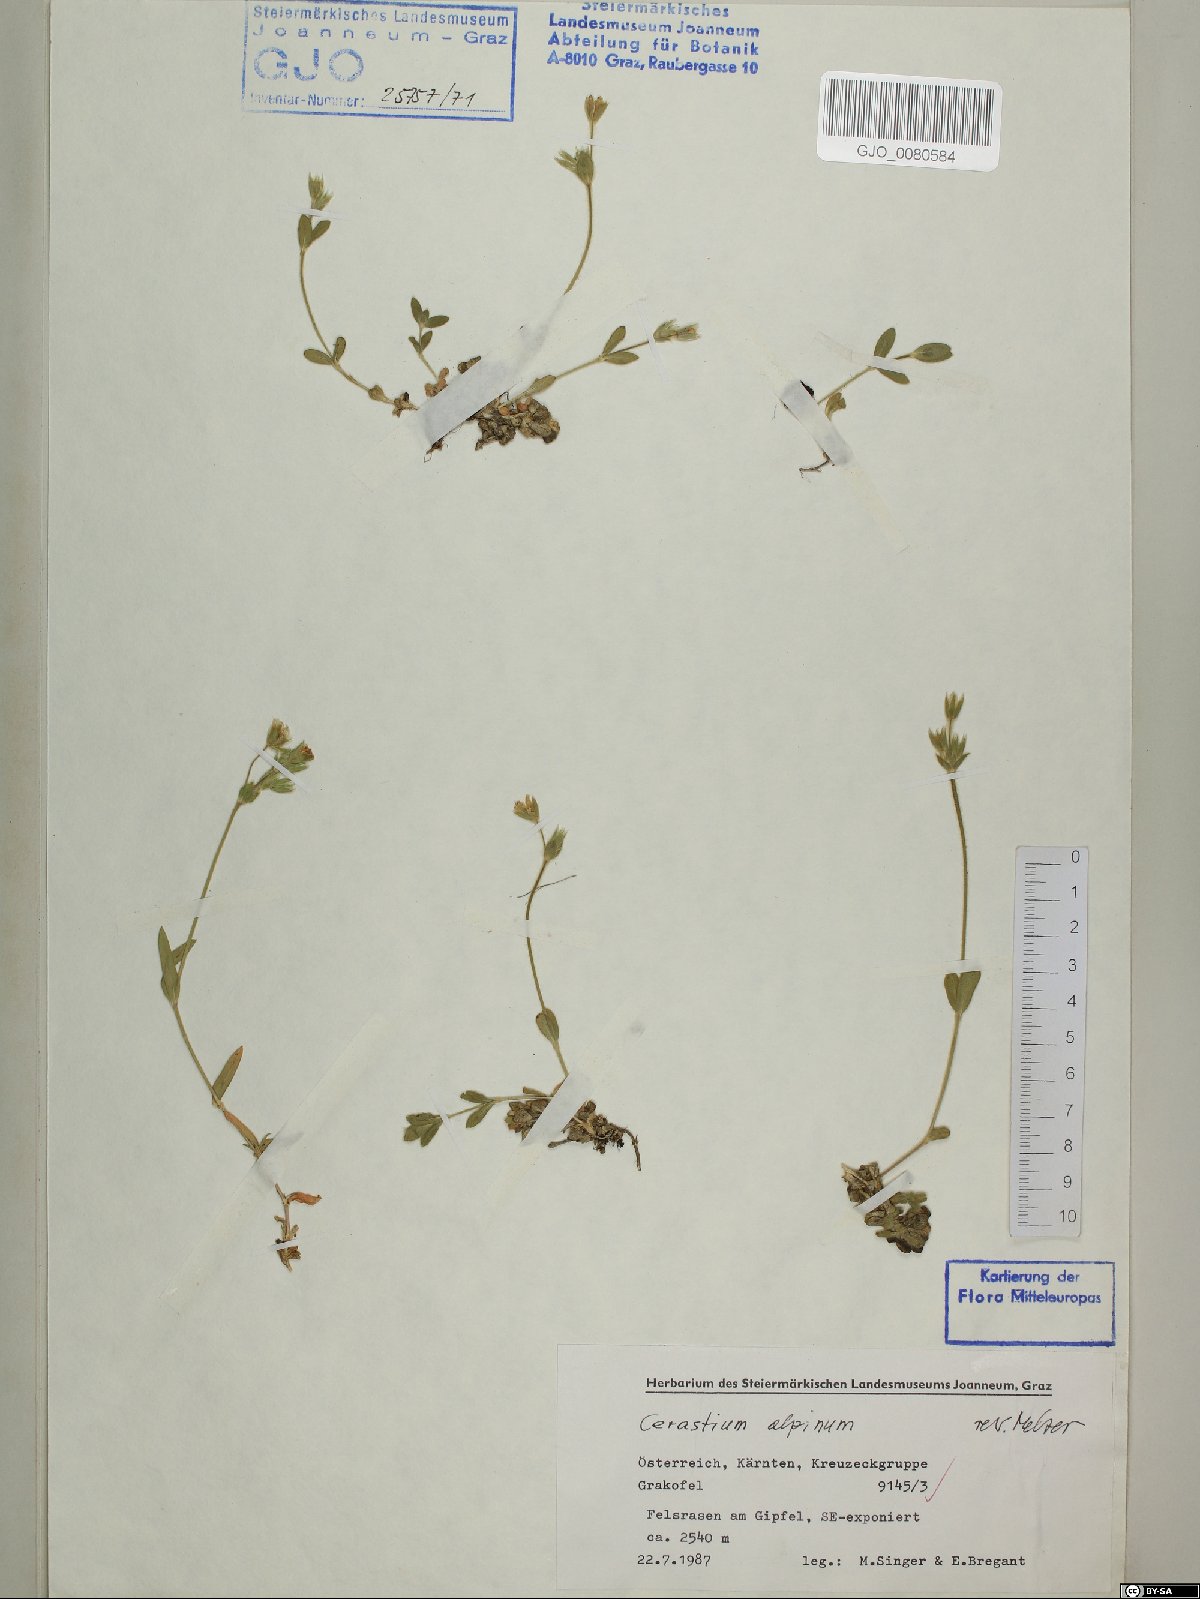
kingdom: Plantae
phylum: Tracheophyta
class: Magnoliopsida
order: Caryophyllales
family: Caryophyllaceae
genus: Cerastium
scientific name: Cerastium alpinum
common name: Alpine mouse-ear
